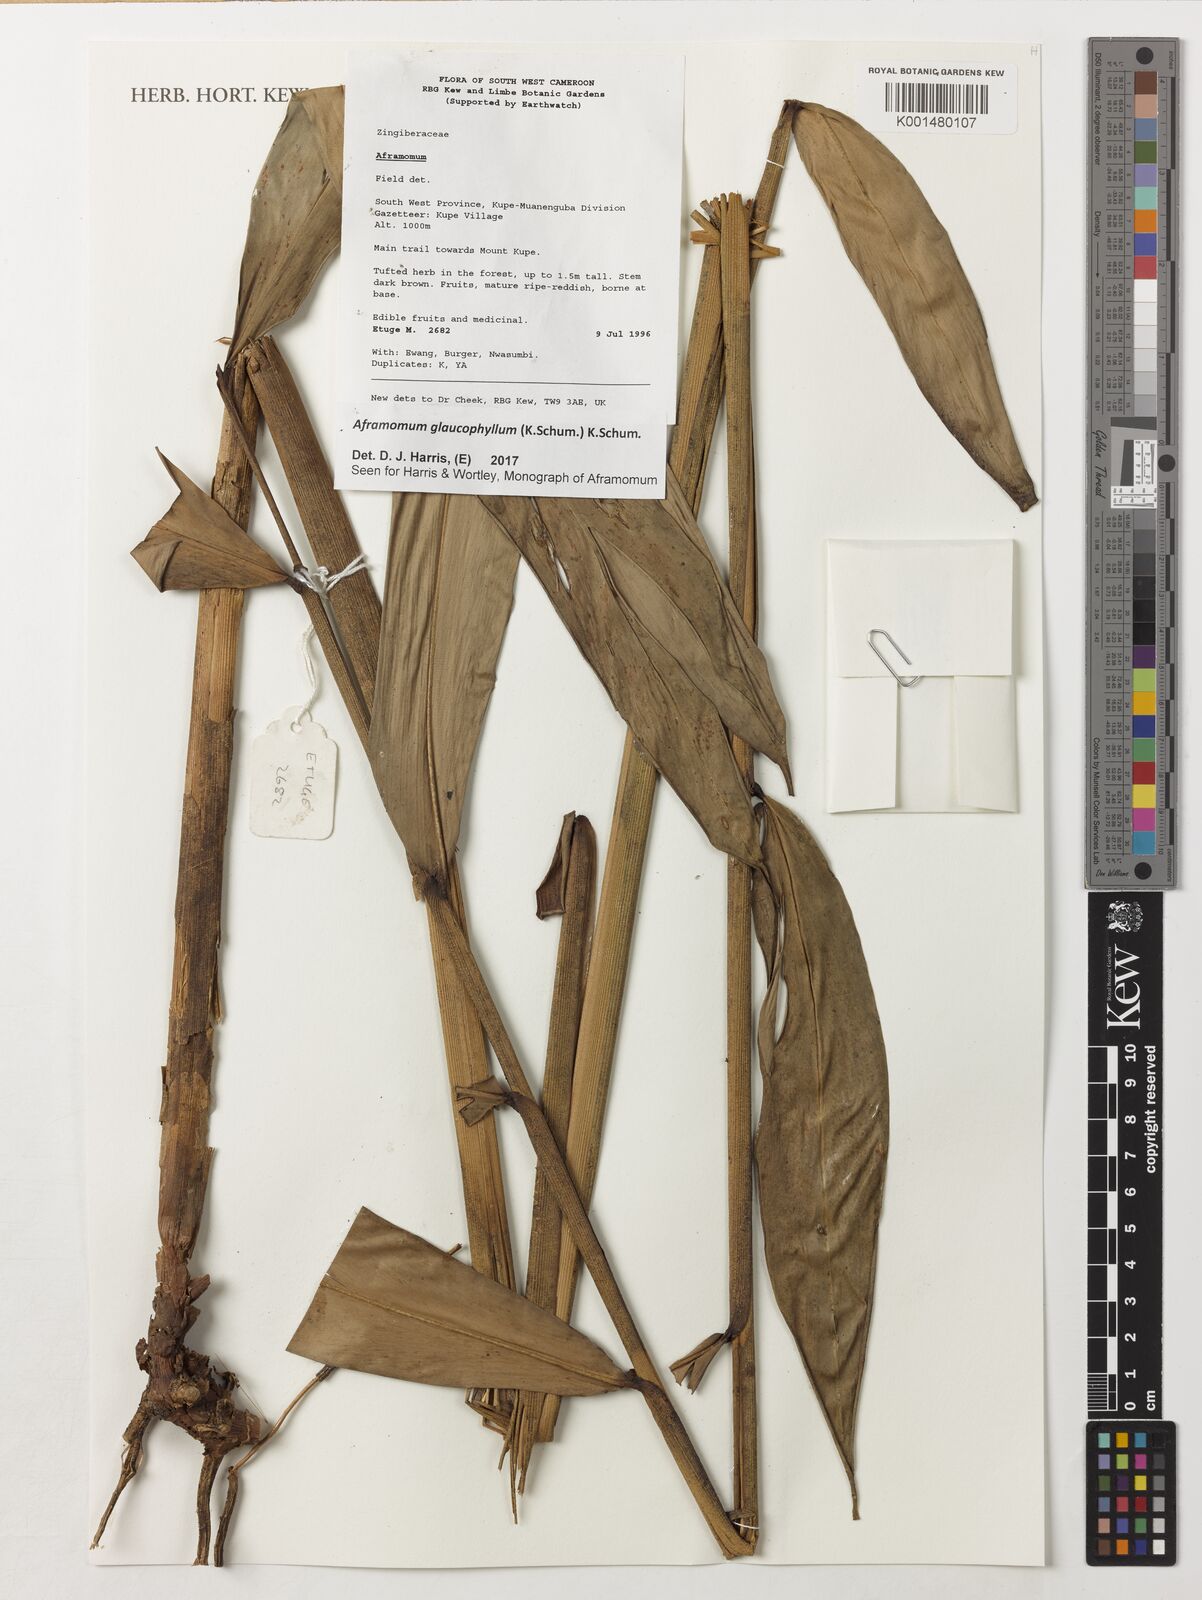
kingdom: Plantae
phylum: Tracheophyta
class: Liliopsida
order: Zingiberales
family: Zingiberaceae
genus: Aframomum
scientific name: Aframomum glaucophyllum
